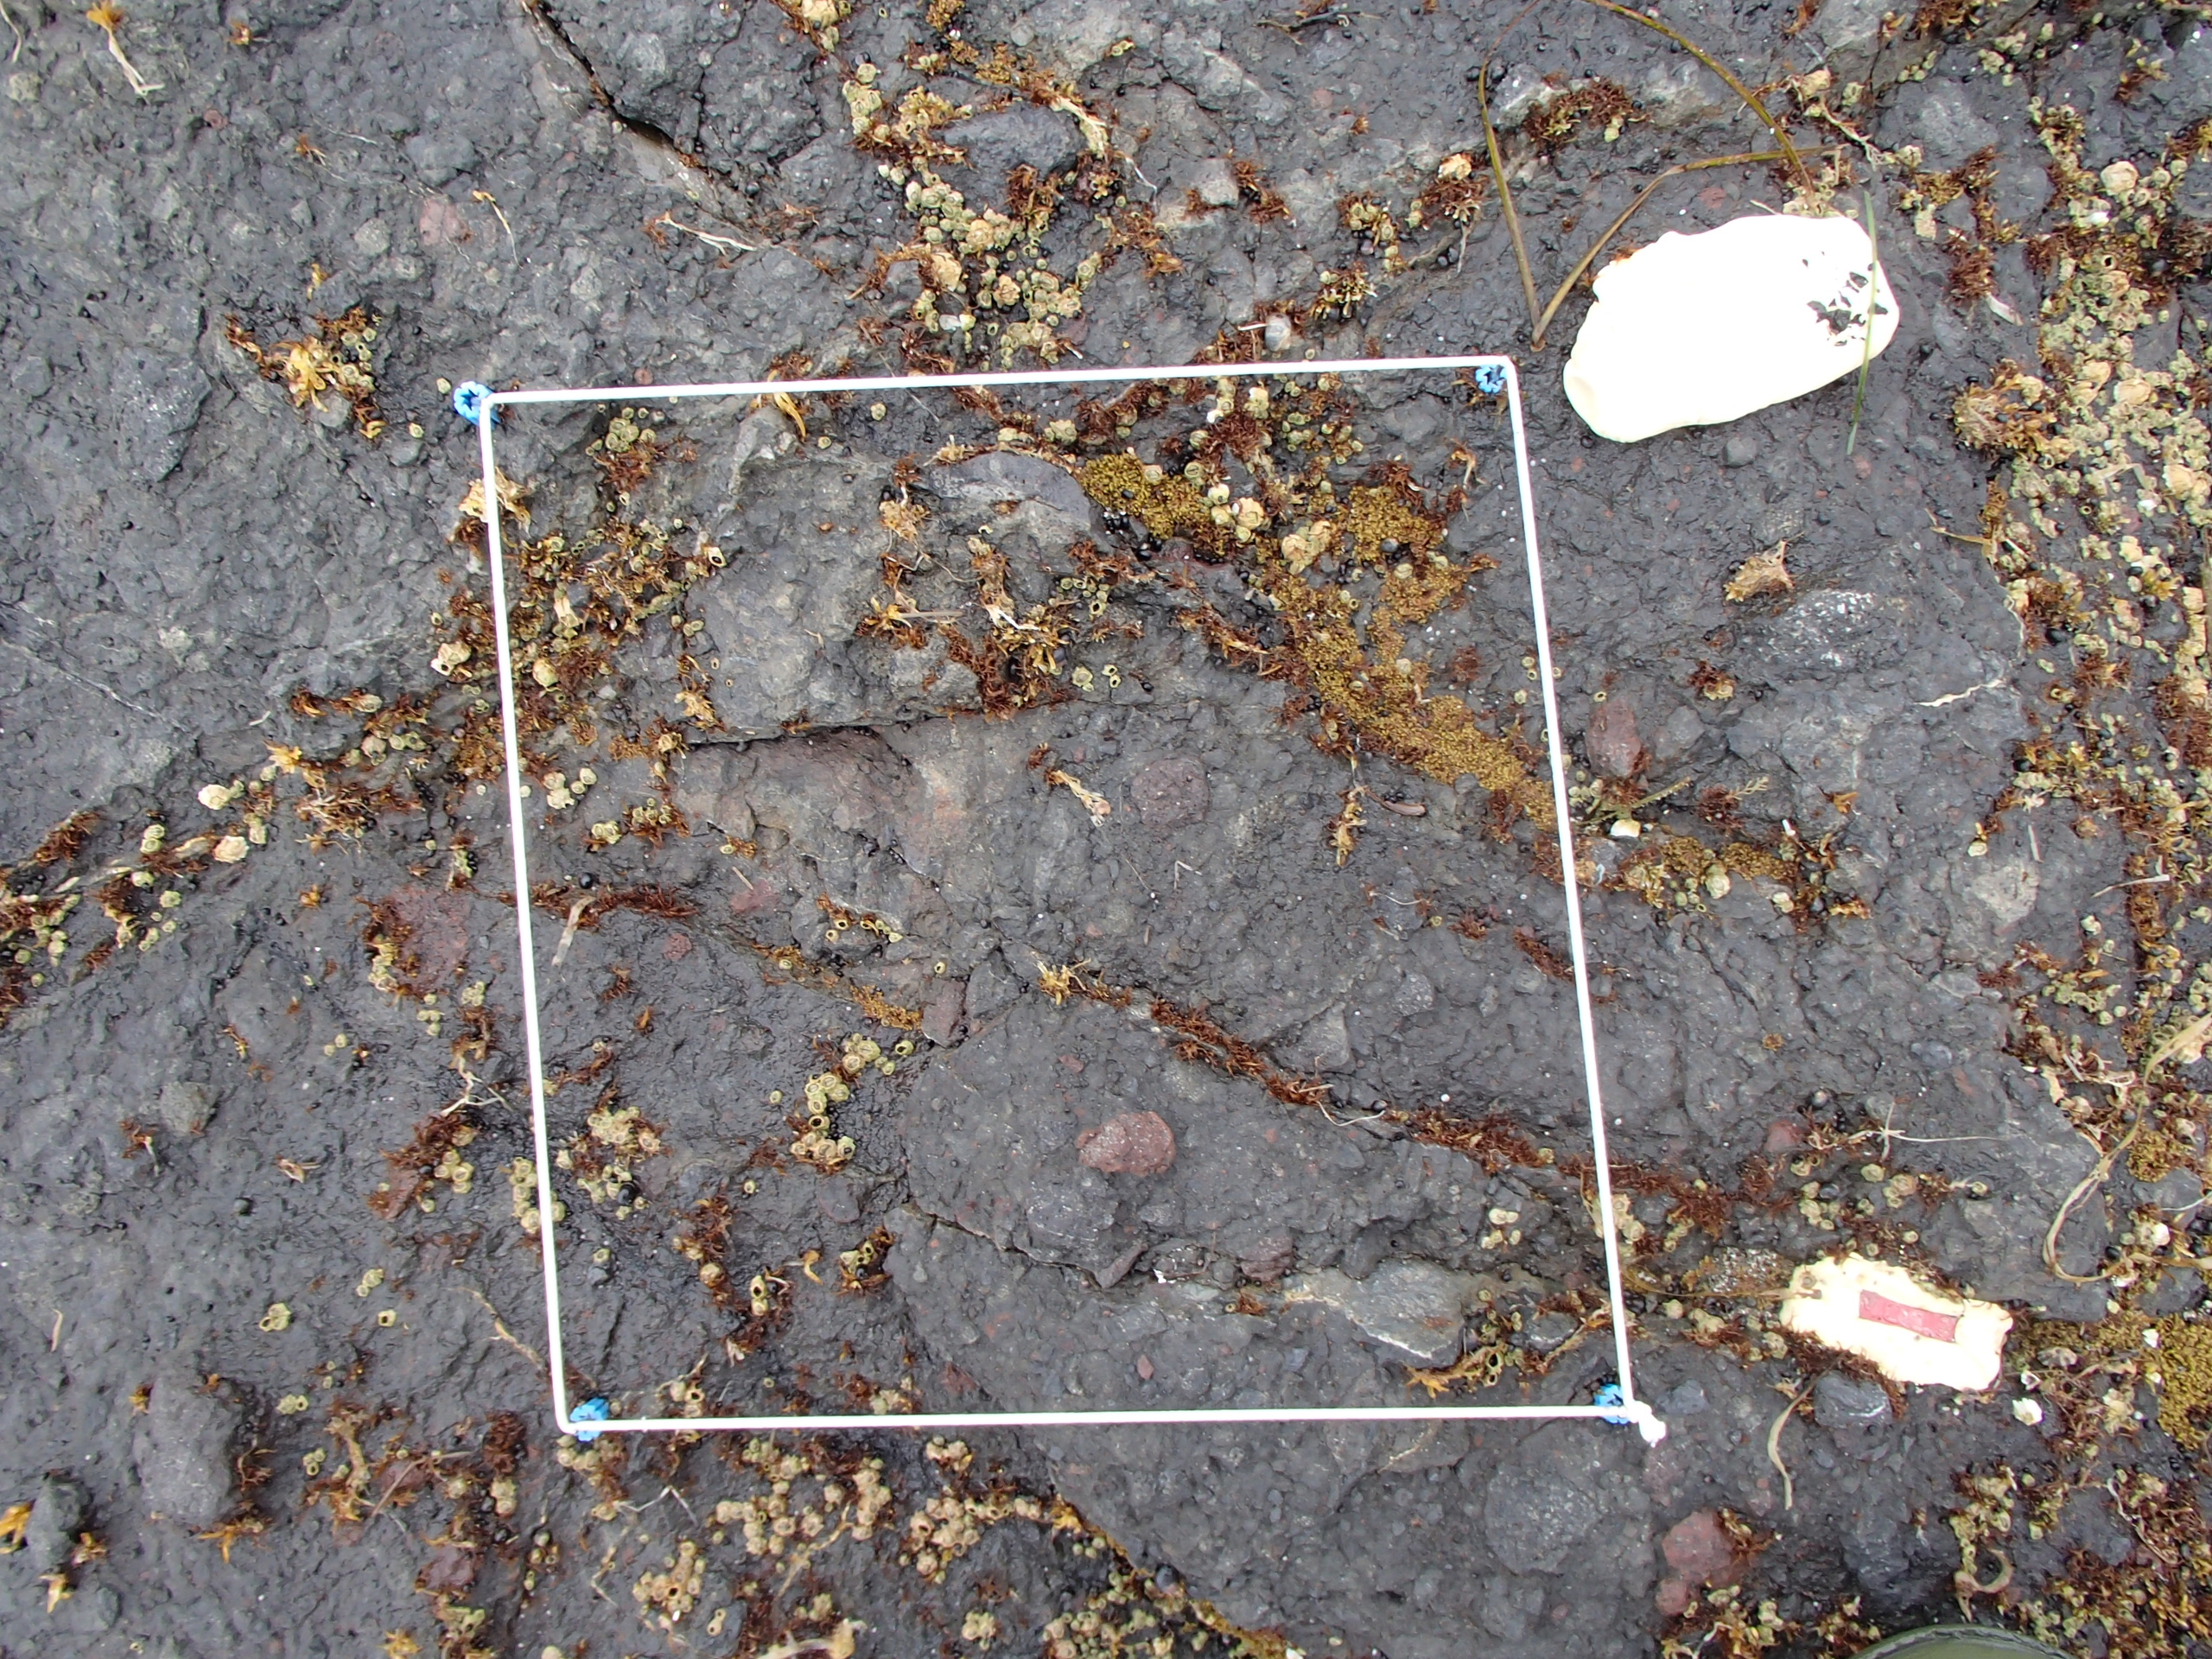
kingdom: Chromista
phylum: Ochrophyta
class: Phaeophyceae
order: Scytosiphonales
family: Scytosiphonaceae
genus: Analipus
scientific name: Analipus japonicus
